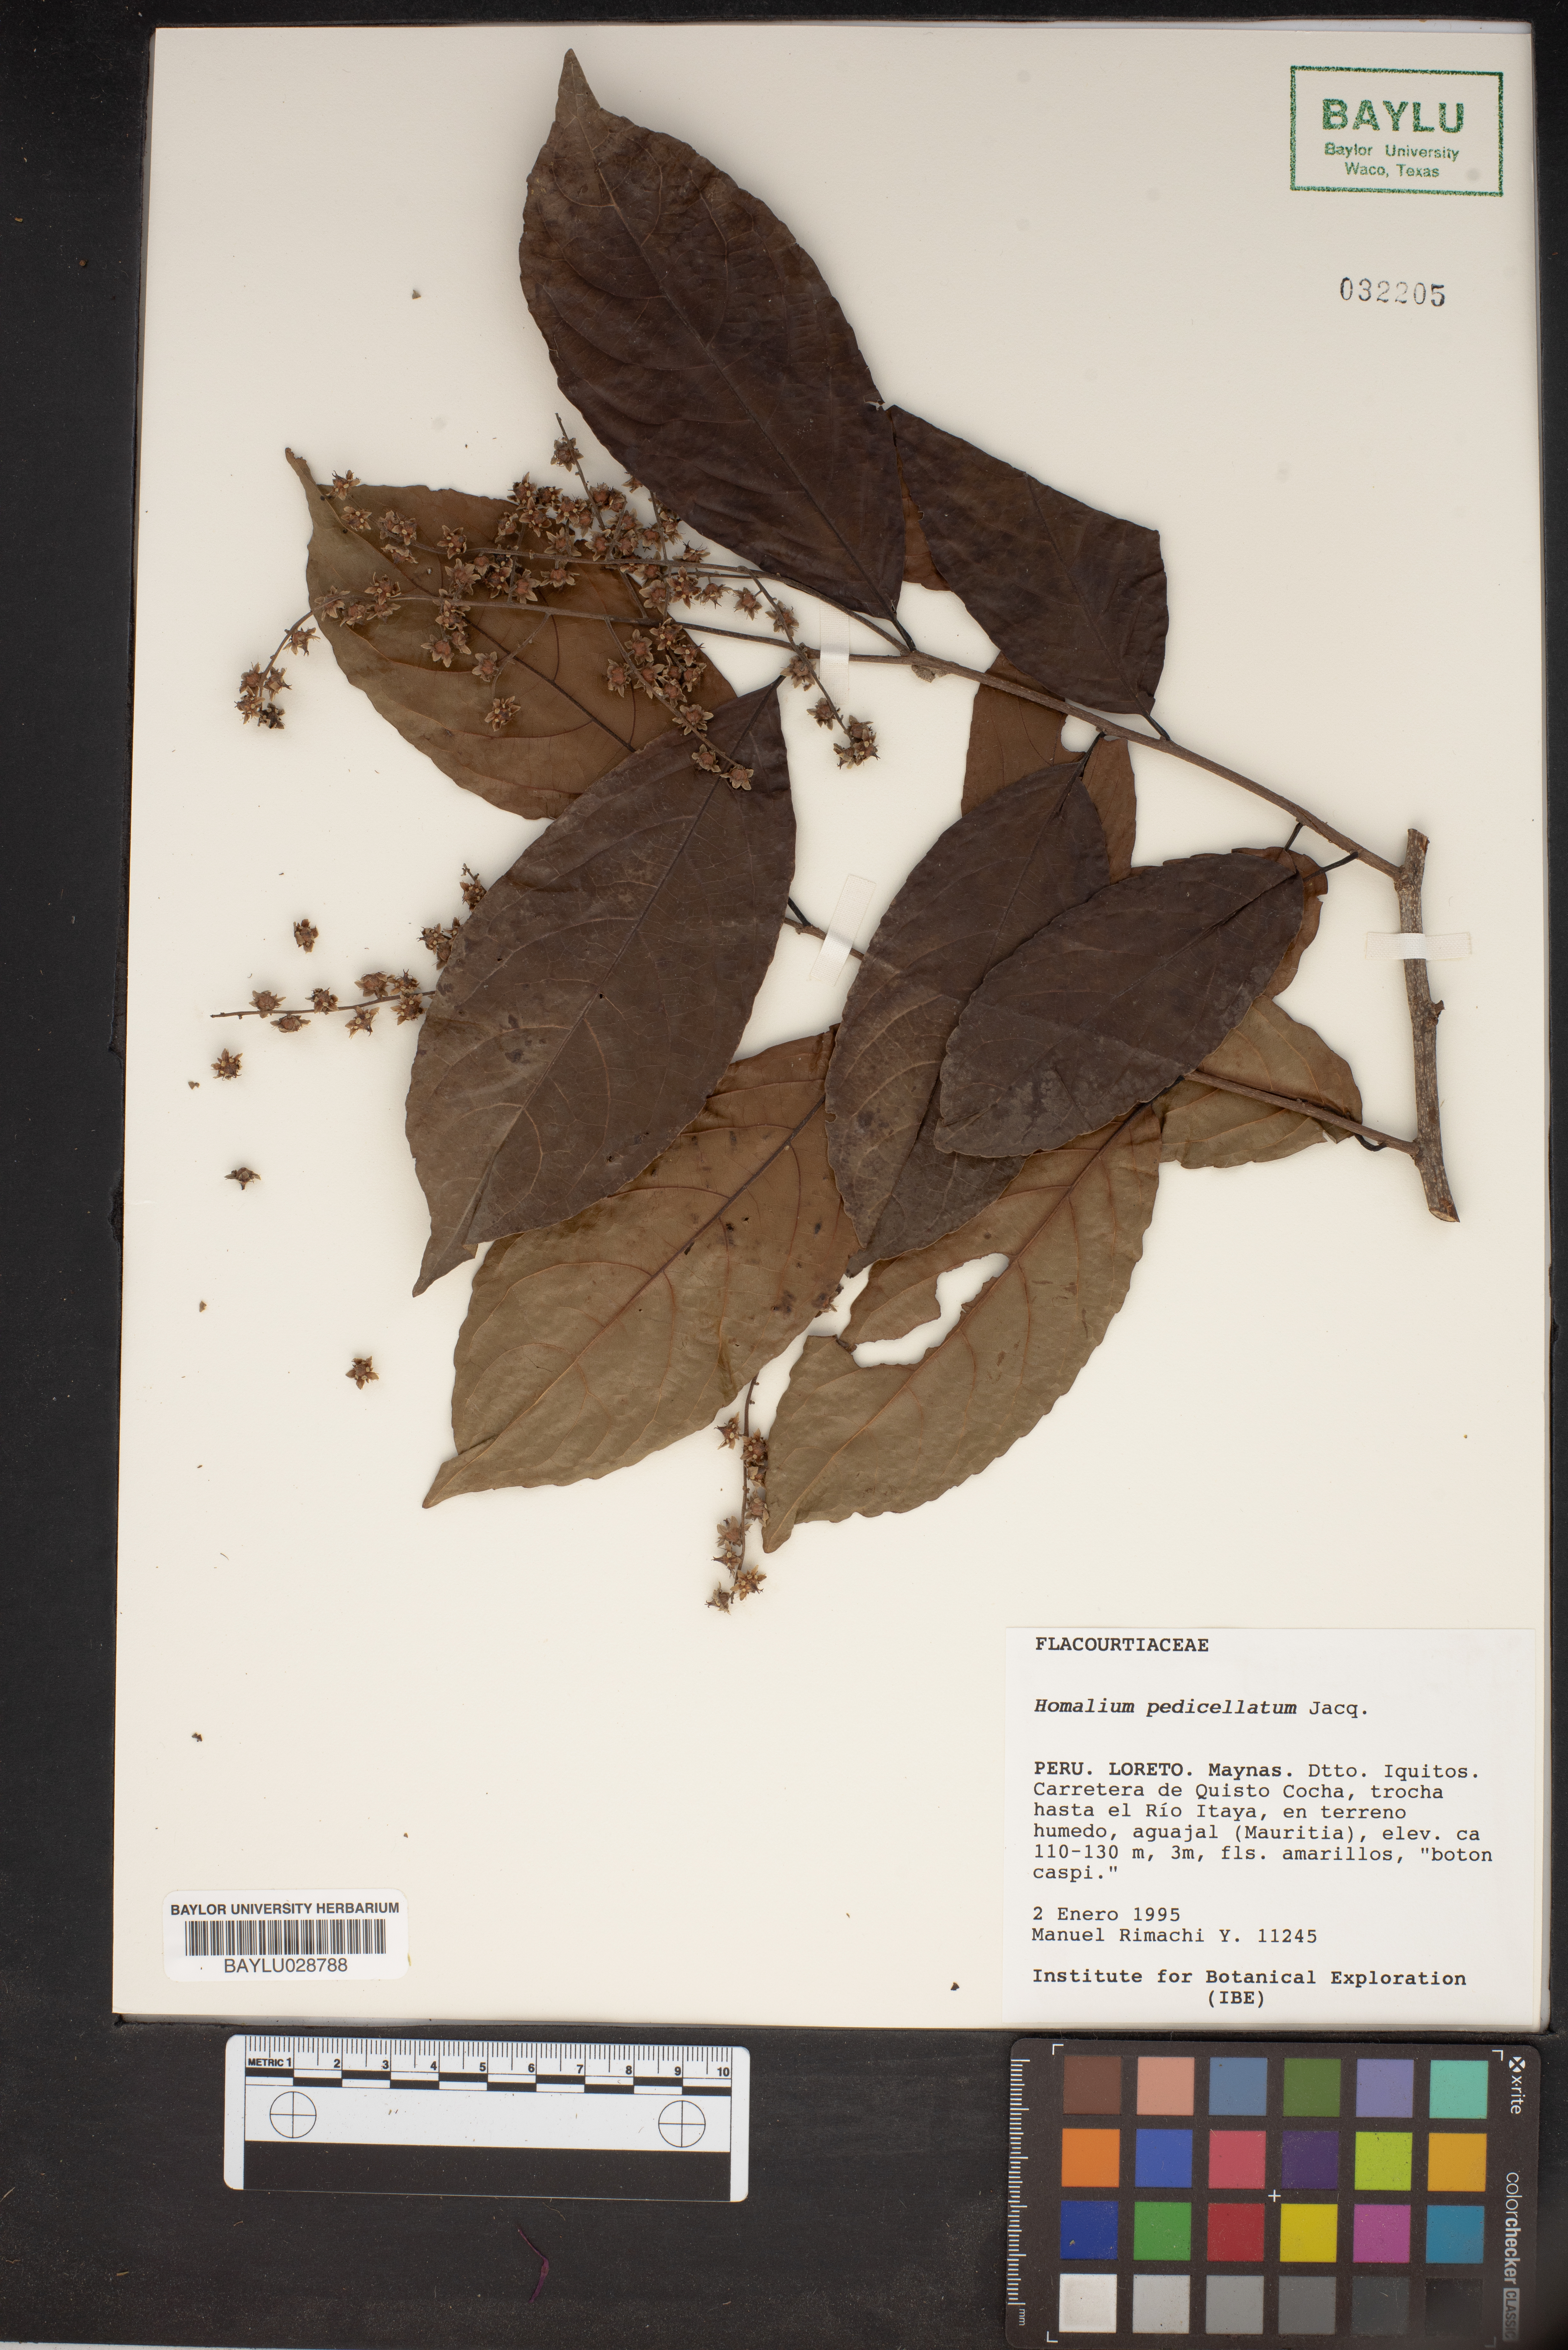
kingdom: Plantae
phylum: Tracheophyta
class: Magnoliopsida
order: Malpighiales
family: Salicaceae
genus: Homalium
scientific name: Homalium racemosum
